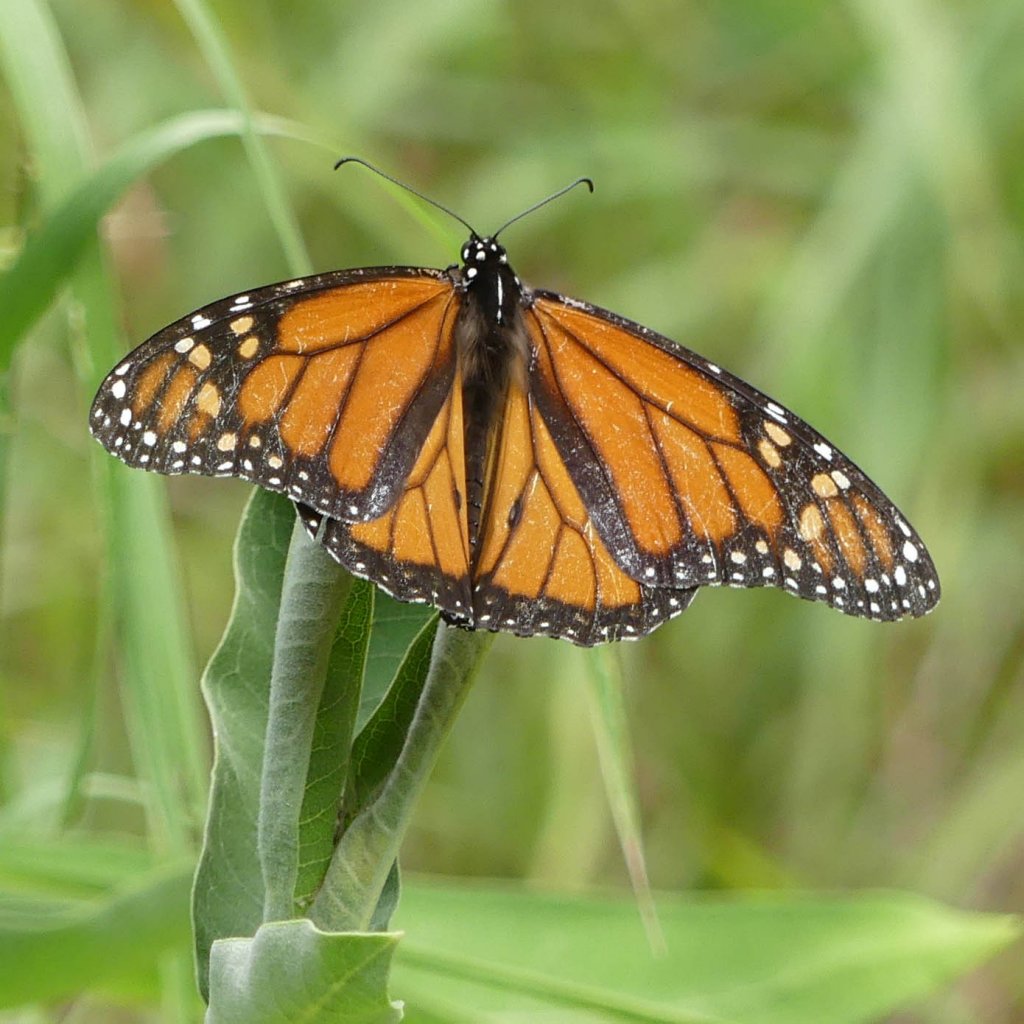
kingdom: Animalia
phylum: Arthropoda
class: Insecta
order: Lepidoptera
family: Nymphalidae
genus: Danaus
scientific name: Danaus plexippus
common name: Monarch
